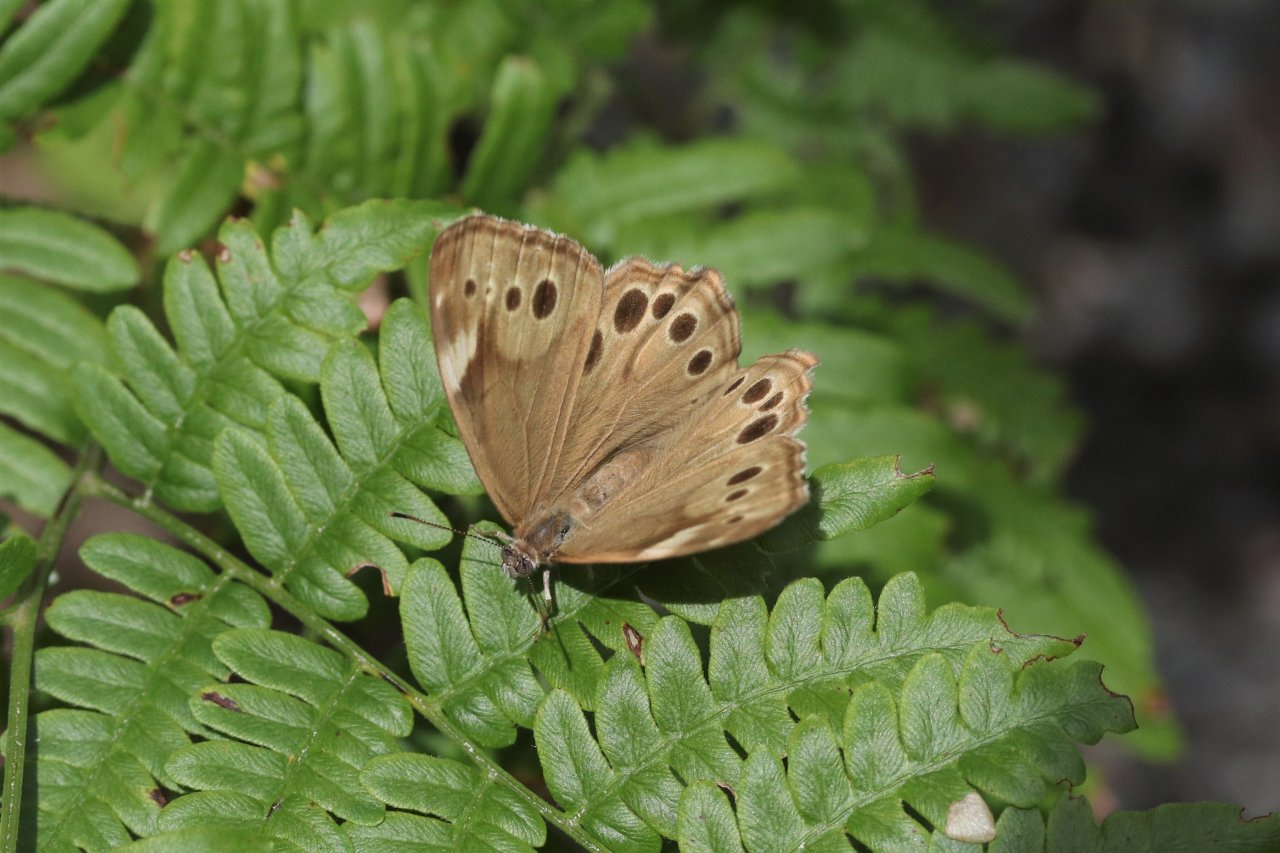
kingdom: Animalia
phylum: Arthropoda
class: Insecta
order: Lepidoptera
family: Nymphalidae
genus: Lethe
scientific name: Lethe anthedon
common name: Northern Pearly-Eye
